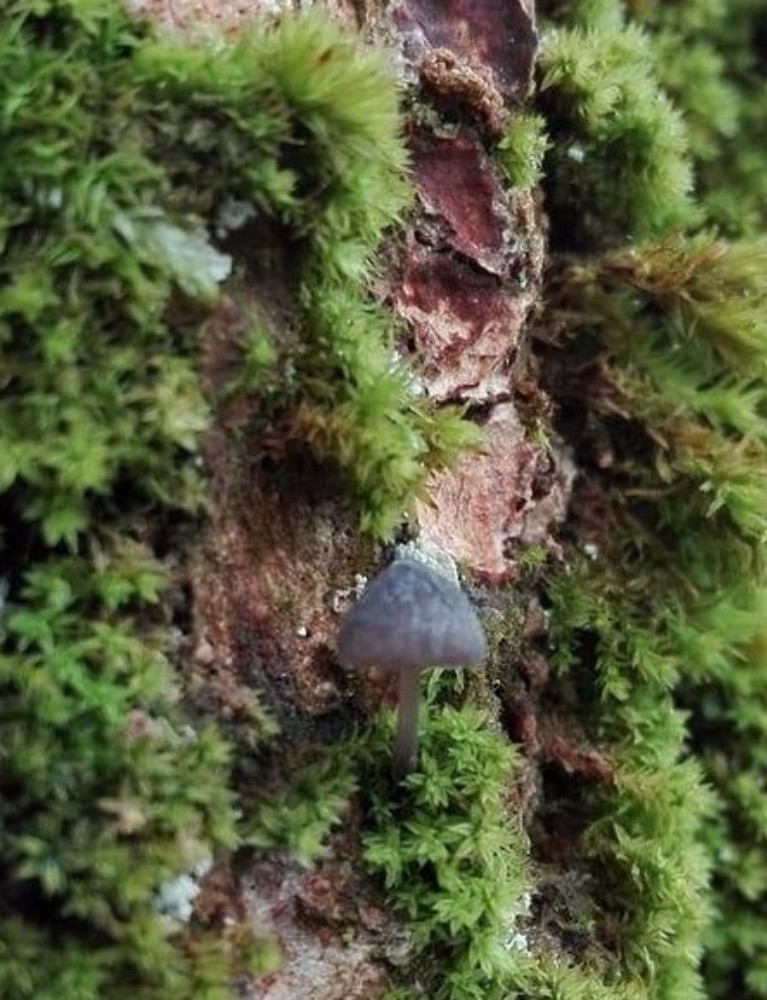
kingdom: Fungi
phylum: Basidiomycota
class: Agaricomycetes
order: Agaricales
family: Mycenaceae
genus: Mycena
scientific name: Mycena pseudocorticola
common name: gråblå bark-huesvamp
